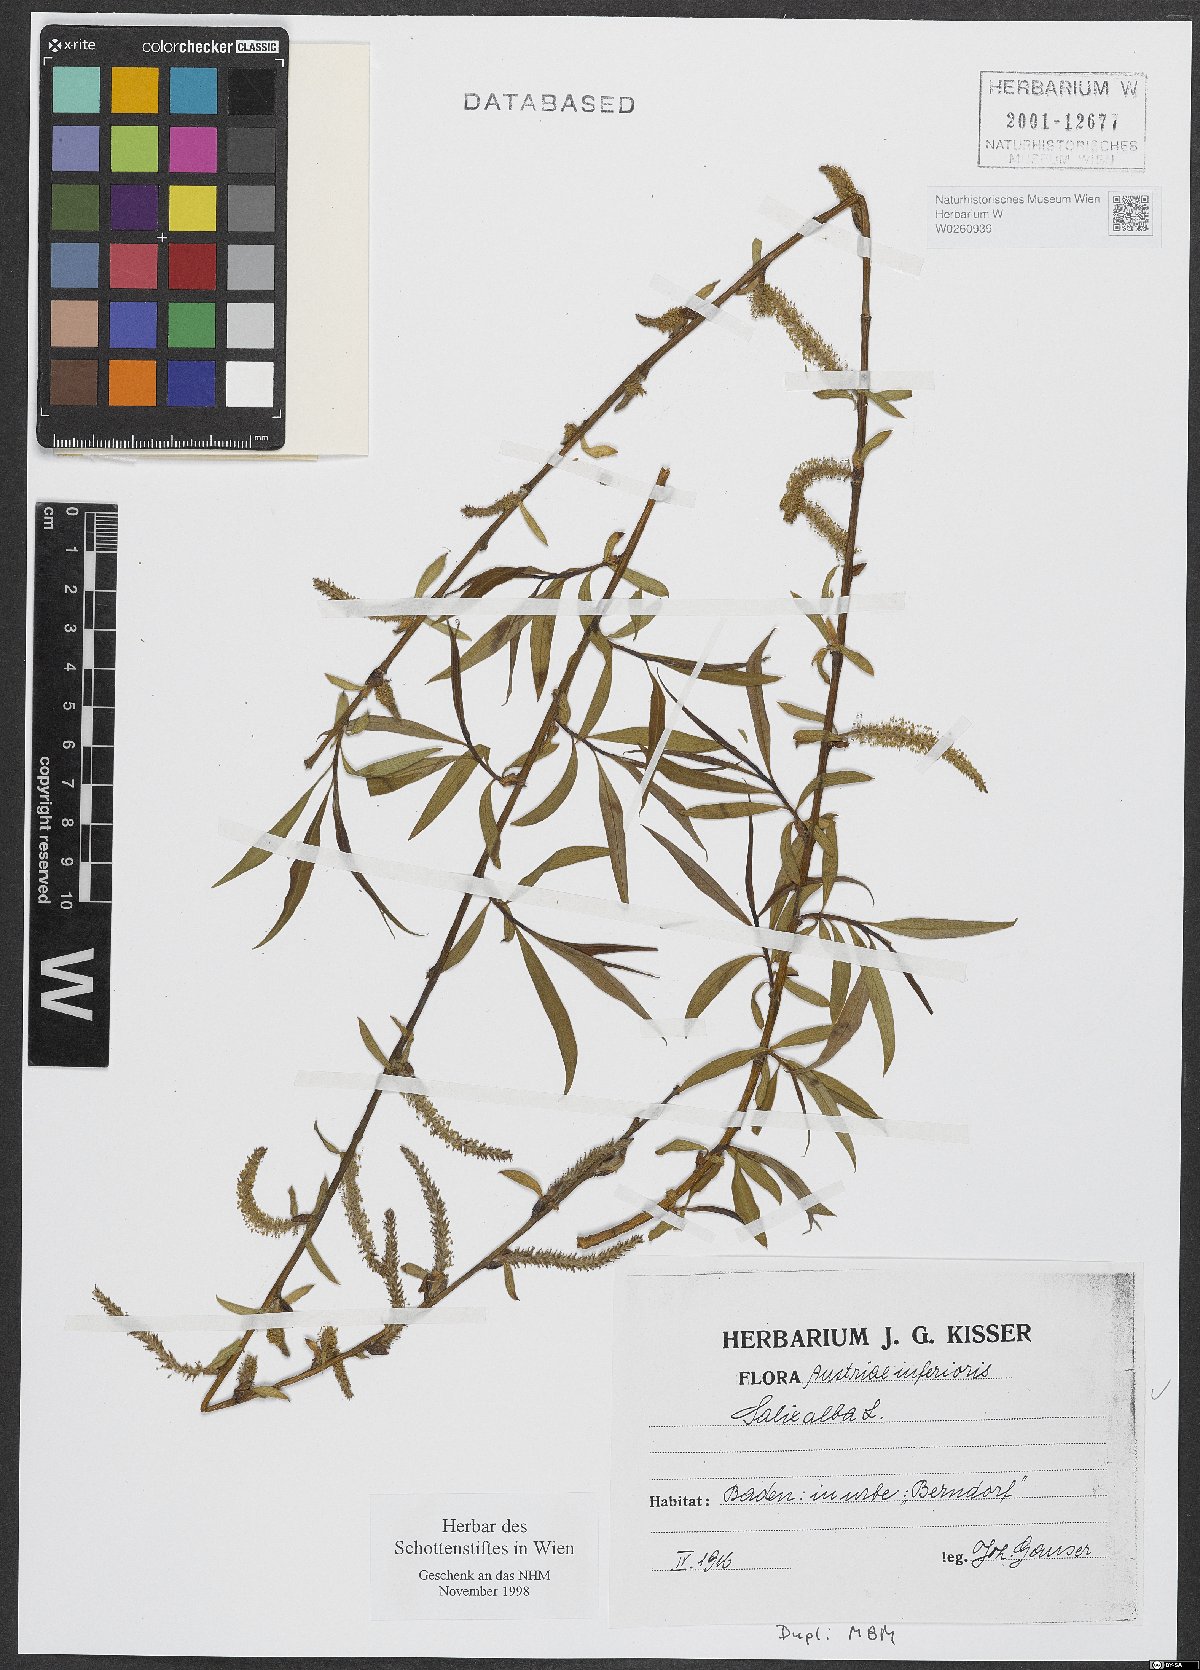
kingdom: Plantae
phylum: Tracheophyta
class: Magnoliopsida
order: Malpighiales
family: Salicaceae
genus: Salix
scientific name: Salix alba
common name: White willow
